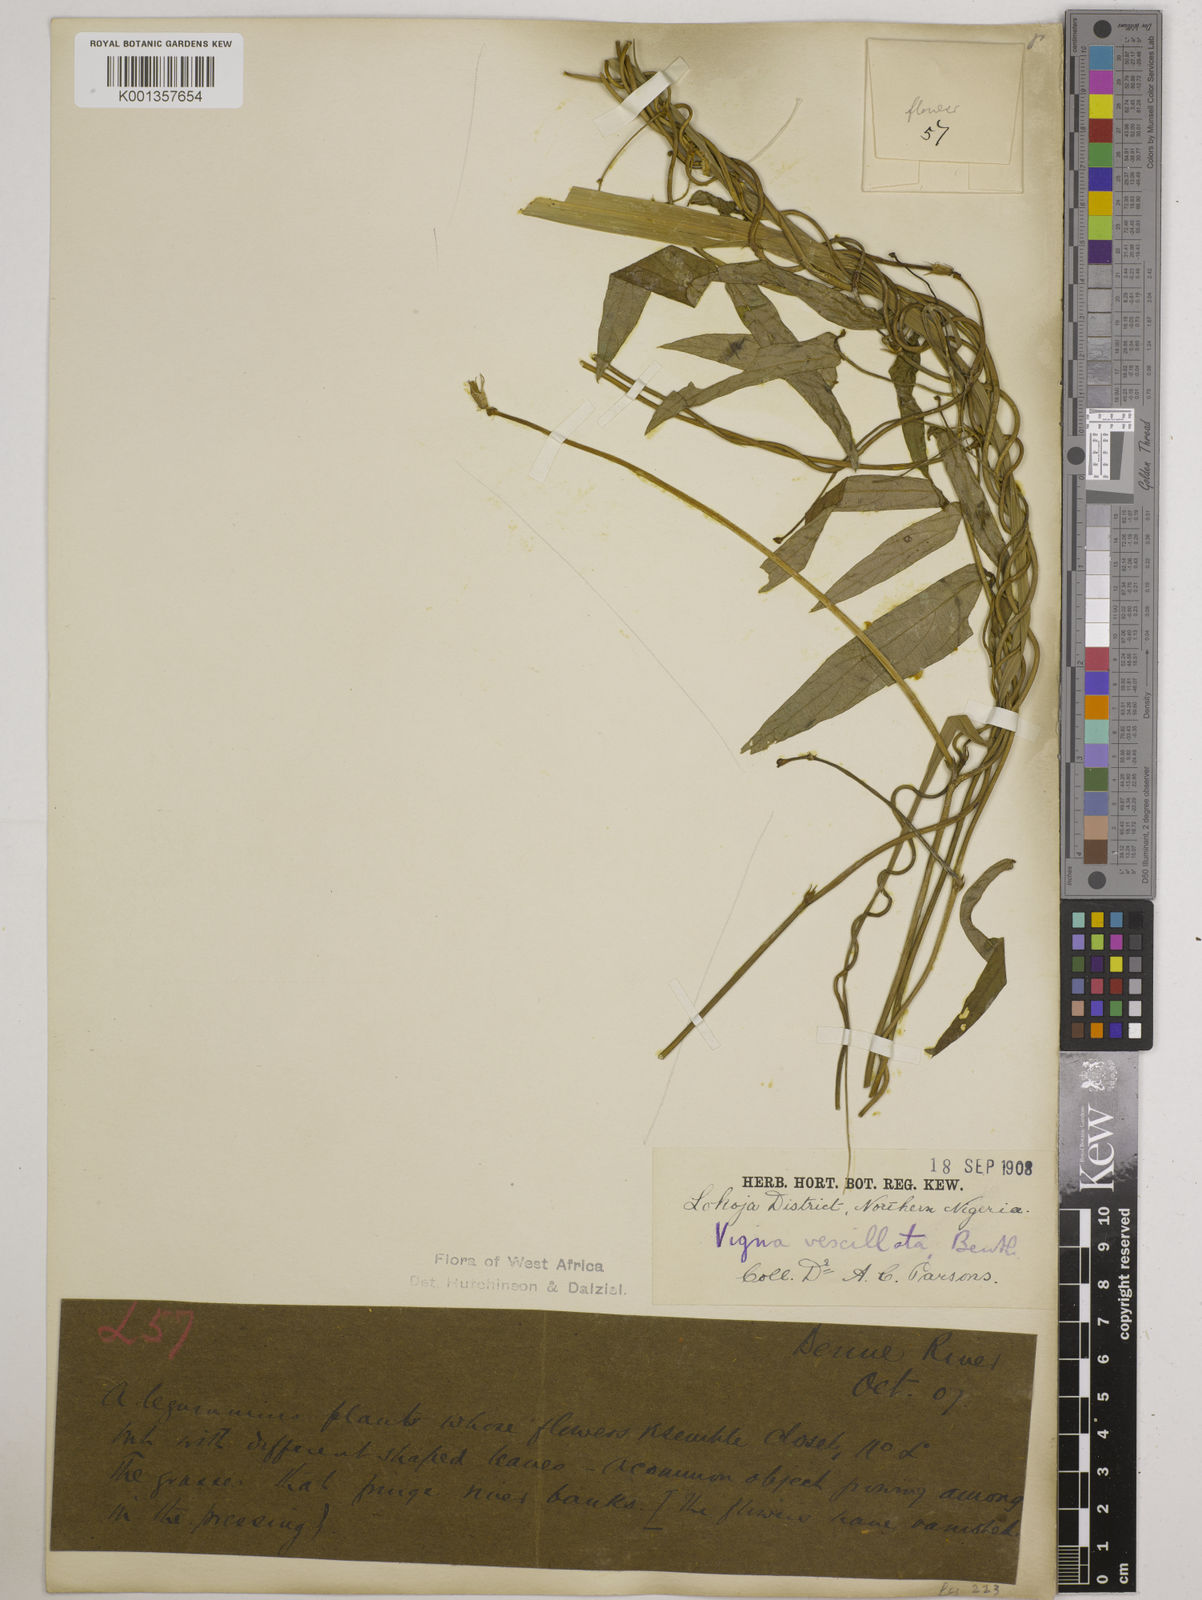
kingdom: Plantae
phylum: Tracheophyta
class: Magnoliopsida
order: Fabales
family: Fabaceae
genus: Vigna
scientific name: Vigna vexillata
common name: Zombi pea
